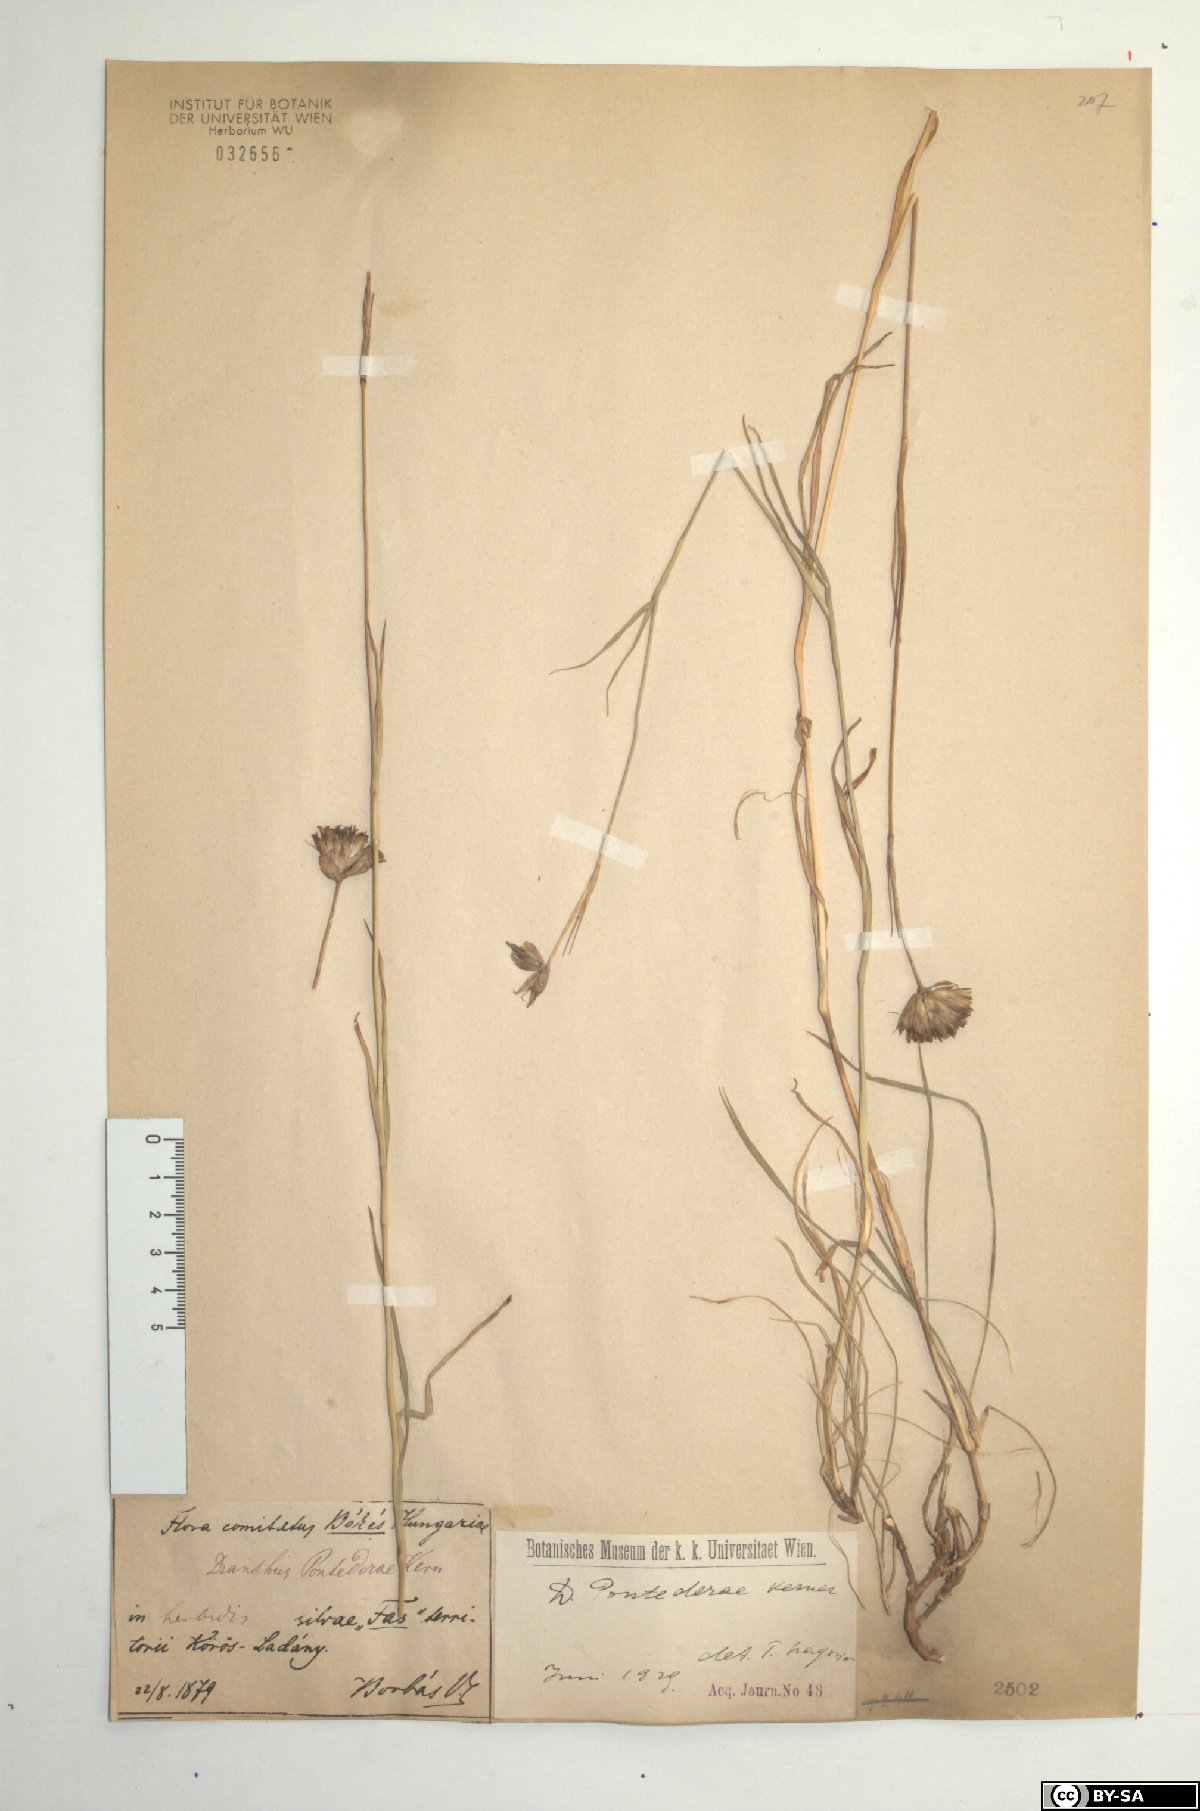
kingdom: Plantae
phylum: Tracheophyta
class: Magnoliopsida
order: Caryophyllales
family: Caryophyllaceae
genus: Dianthus
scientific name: Dianthus pontederae
